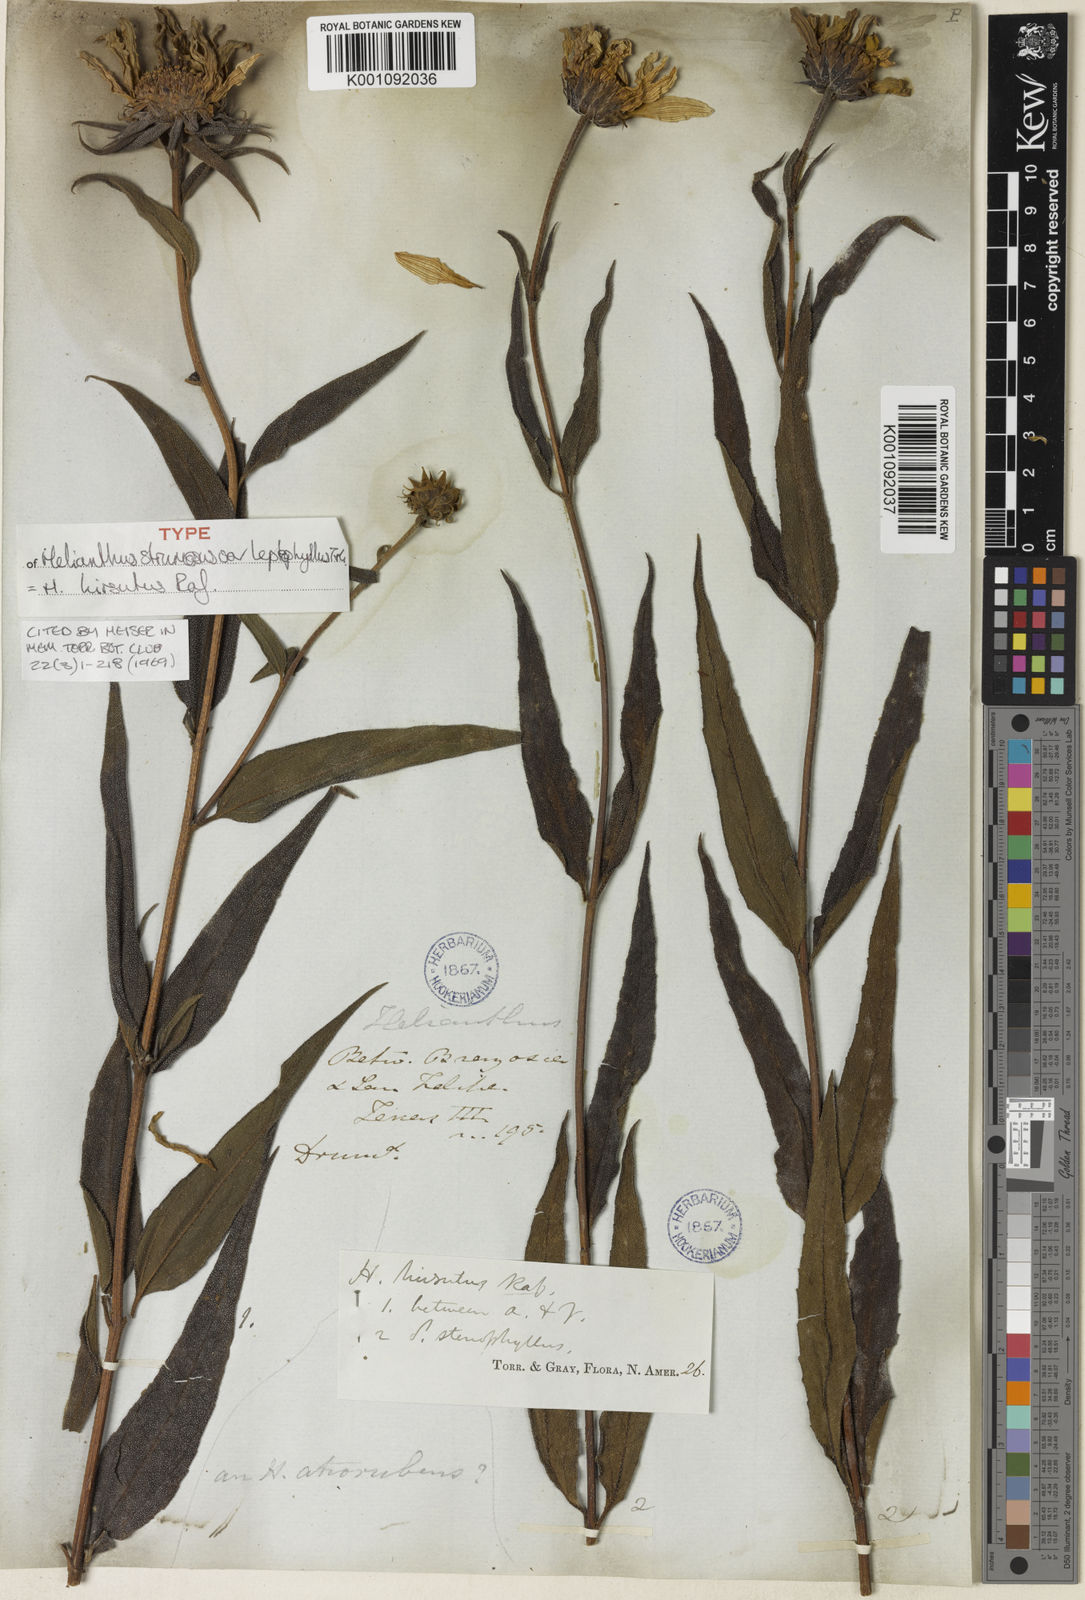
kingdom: Plantae
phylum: Tracheophyta
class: Magnoliopsida
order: Asterales
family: Asteraceae
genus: Helianthus
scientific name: Helianthus hirsutus
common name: Hairy sunflower
